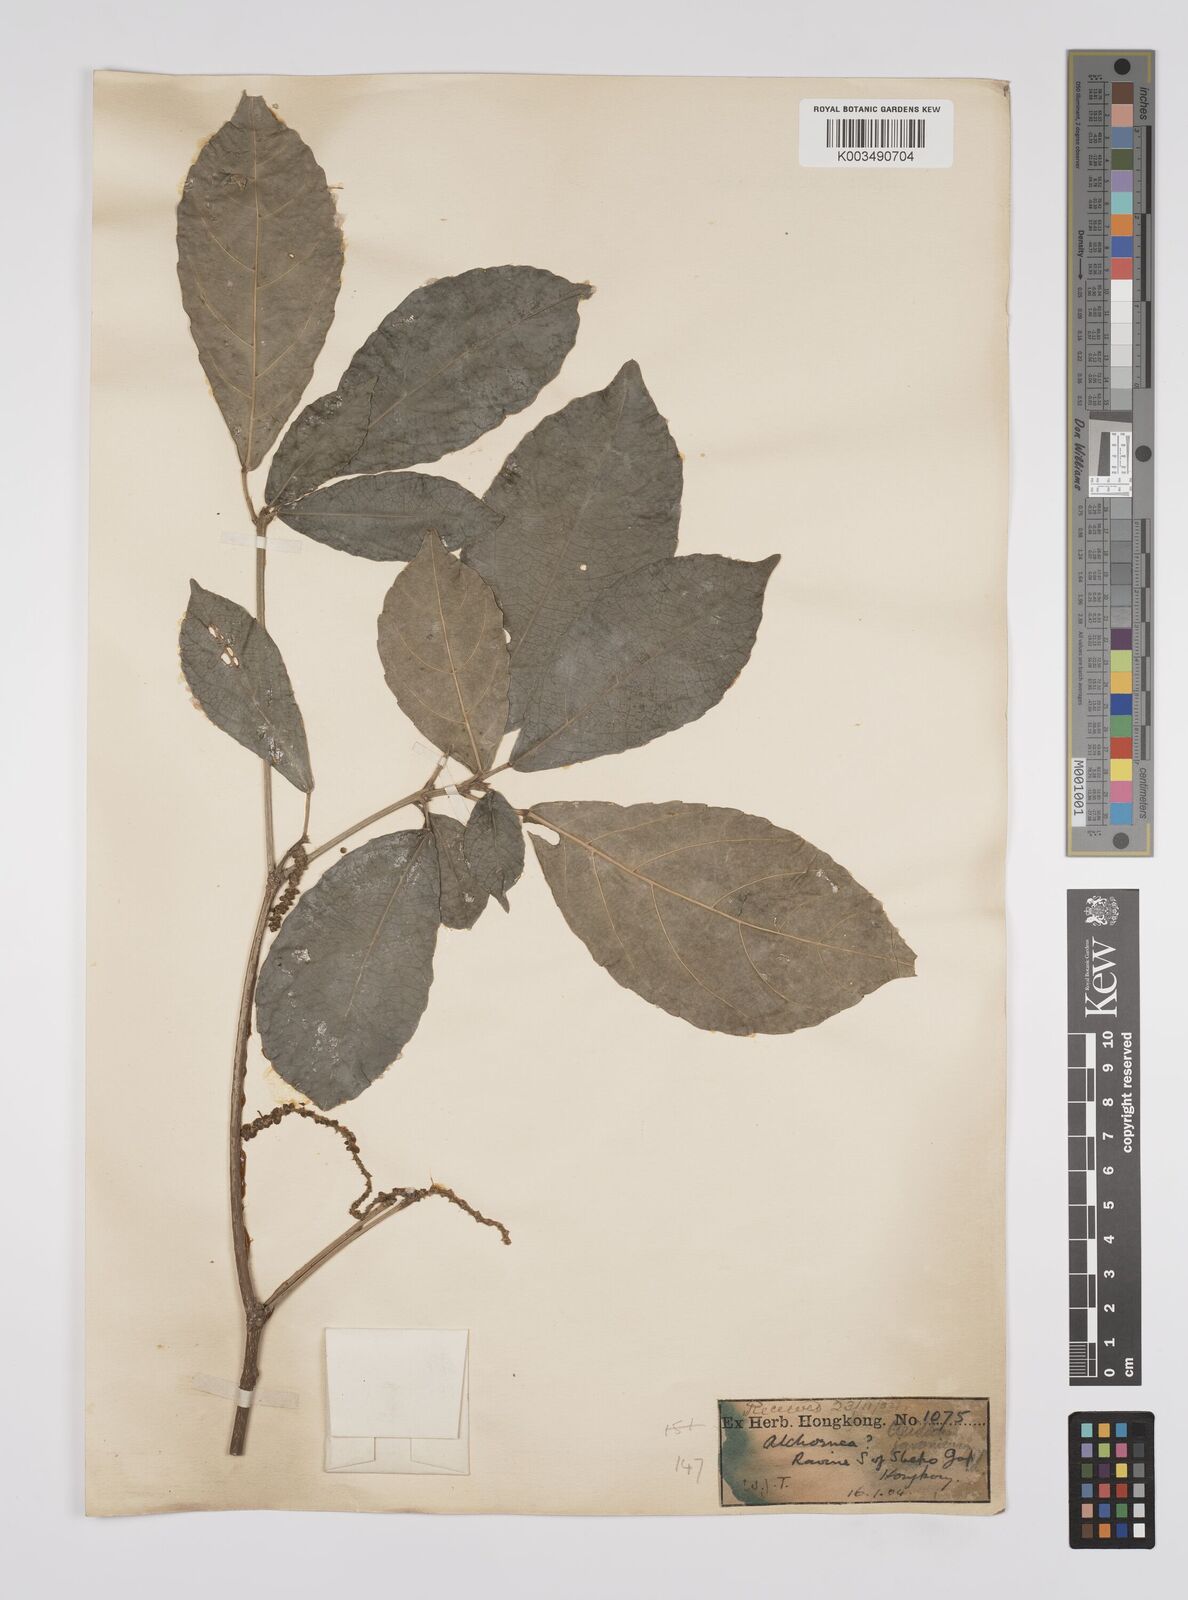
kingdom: Plantae
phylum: Tracheophyta
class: Magnoliopsida
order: Malpighiales
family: Euphorbiaceae
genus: Acalypha
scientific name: Acalypha spiciflora
